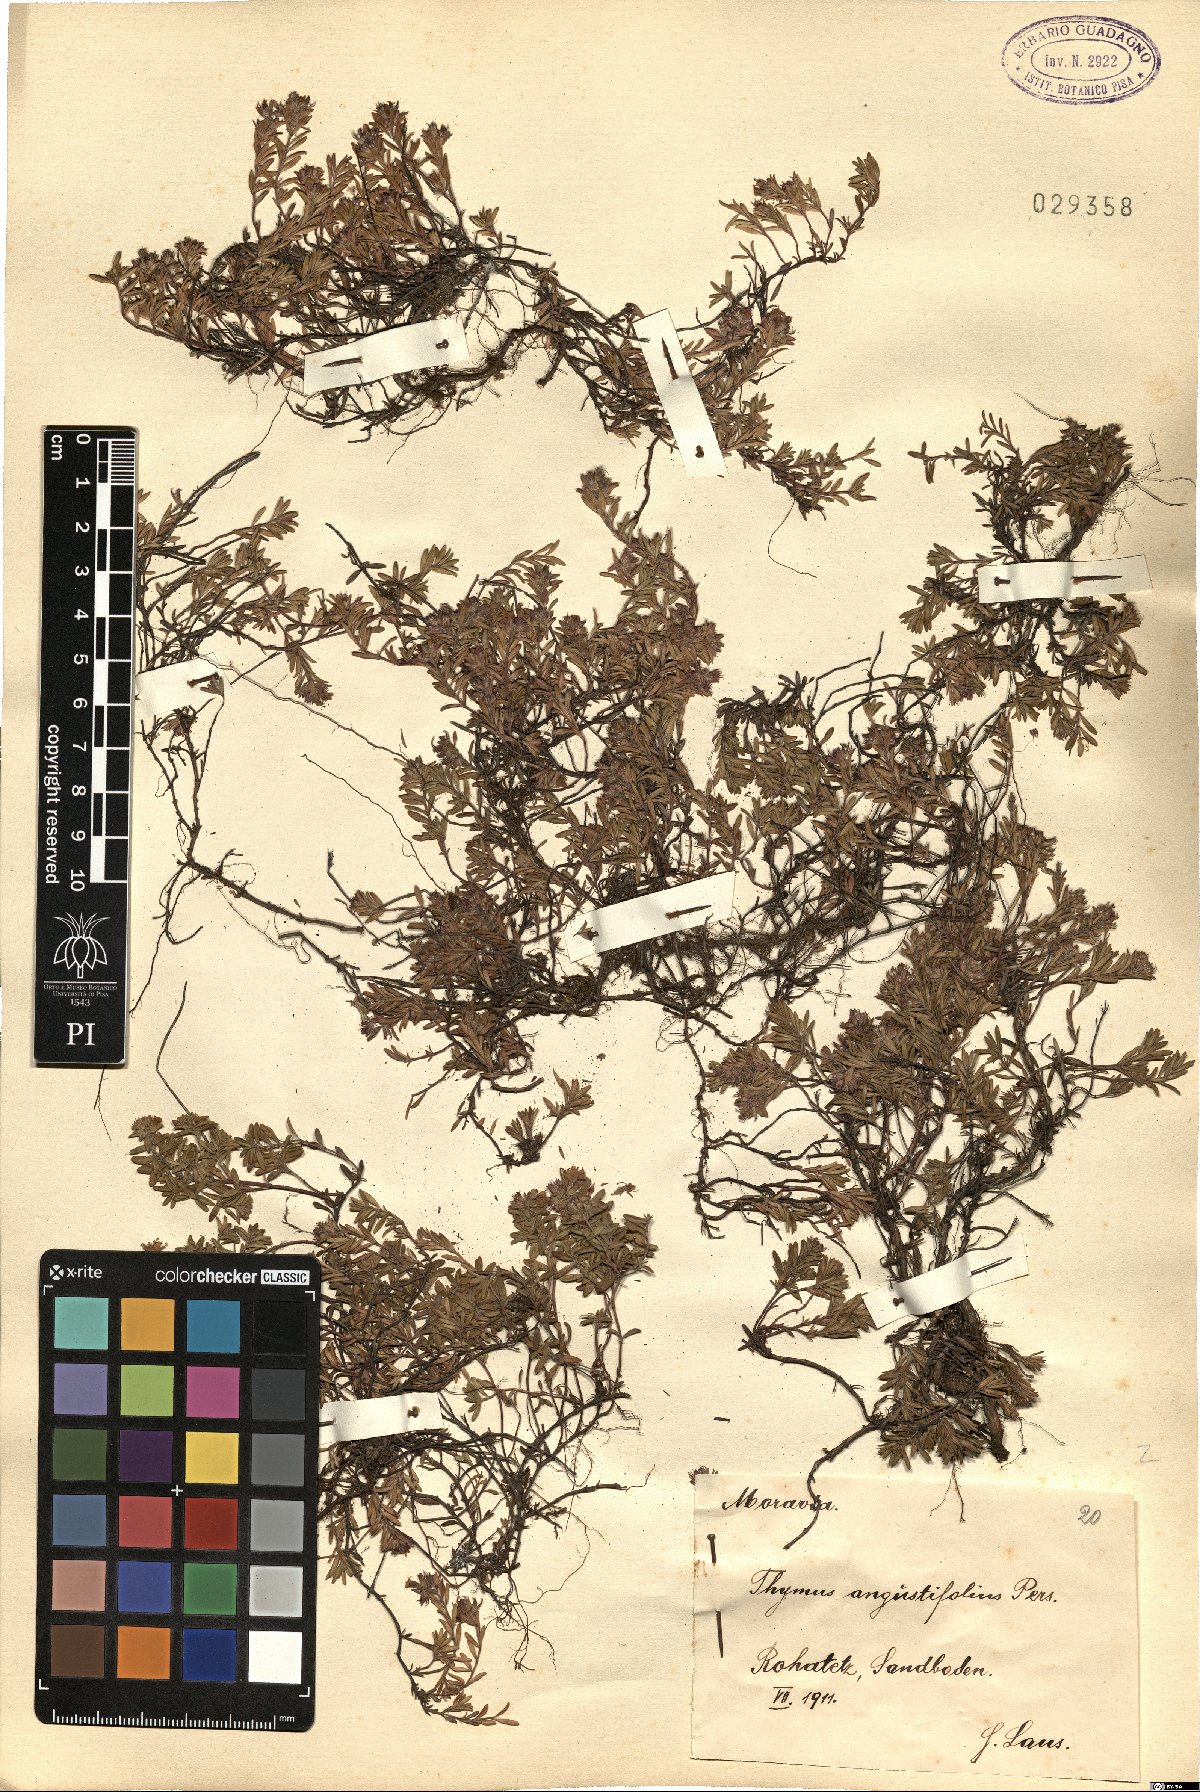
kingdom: Plantae
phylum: Tracheophyta
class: Magnoliopsida
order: Lamiales
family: Lamiaceae
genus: Thymus
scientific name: Thymus serpyllum
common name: Breckland thyme
